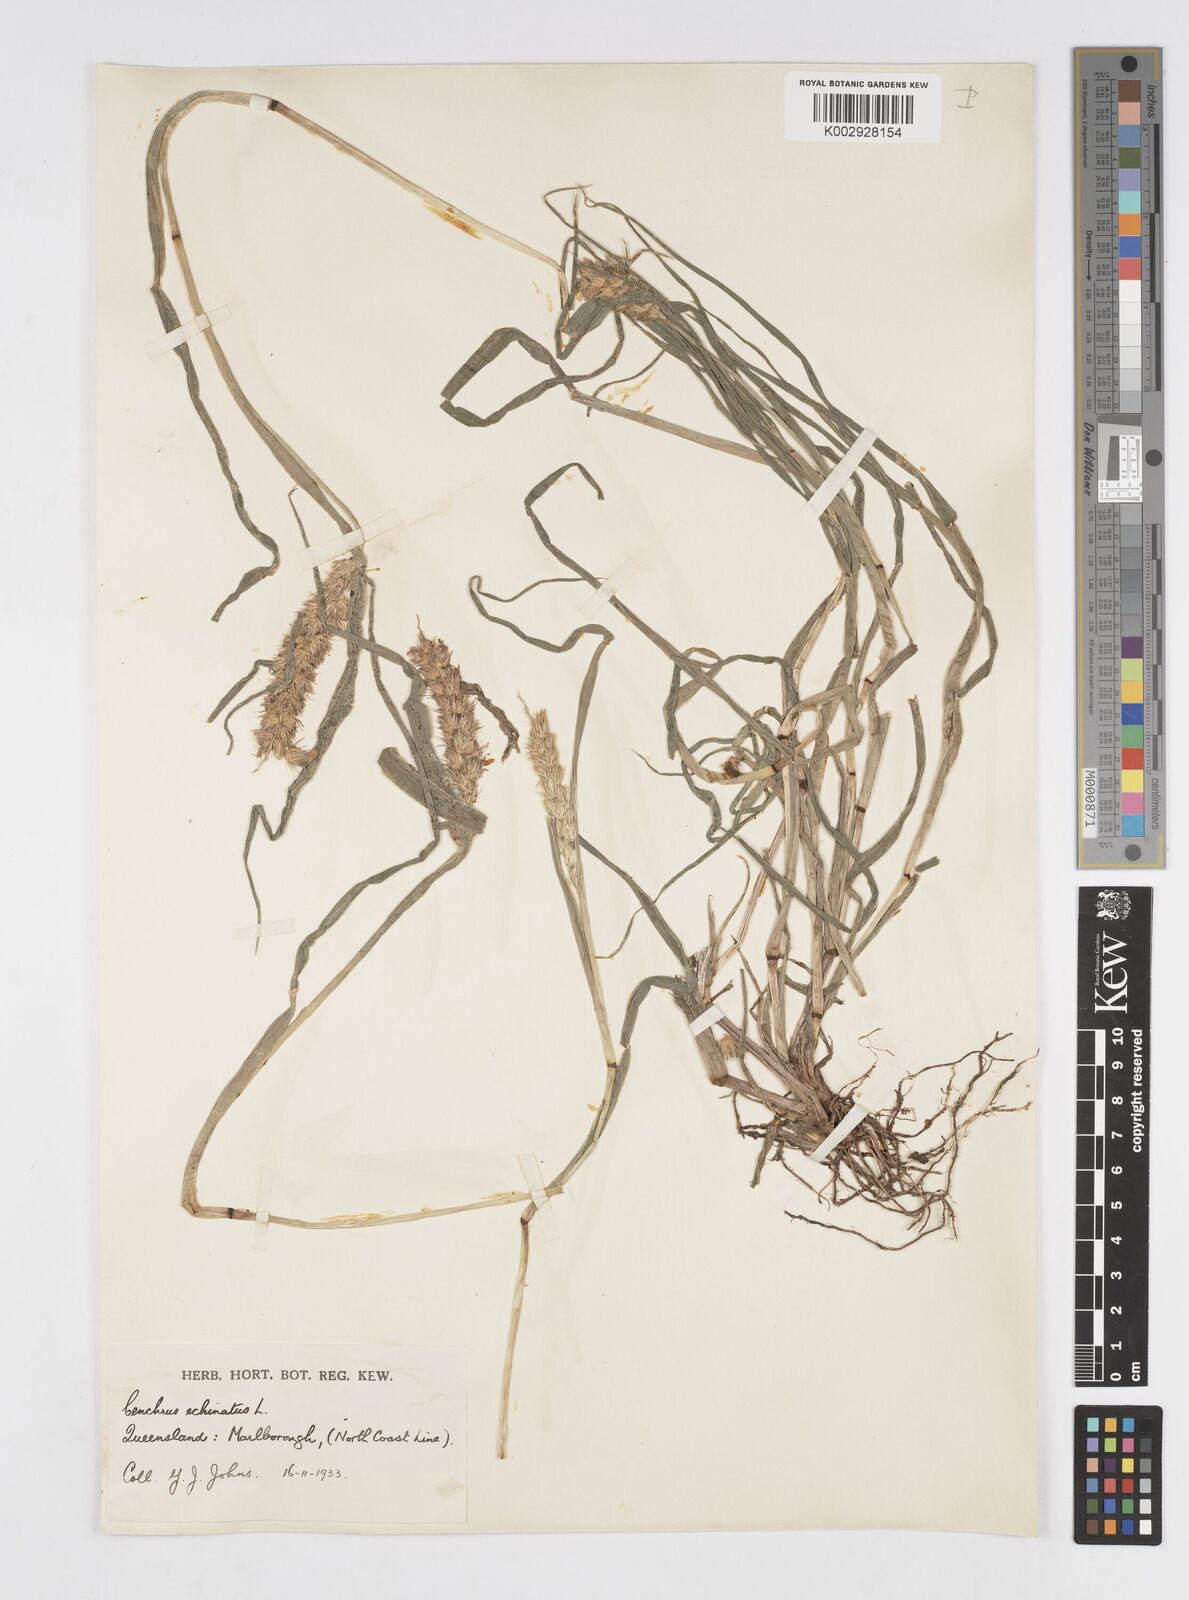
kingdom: Plantae
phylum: Tracheophyta
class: Liliopsida
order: Poales
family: Poaceae
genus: Cenchrus
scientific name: Cenchrus echinatus
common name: Southern sandbur
